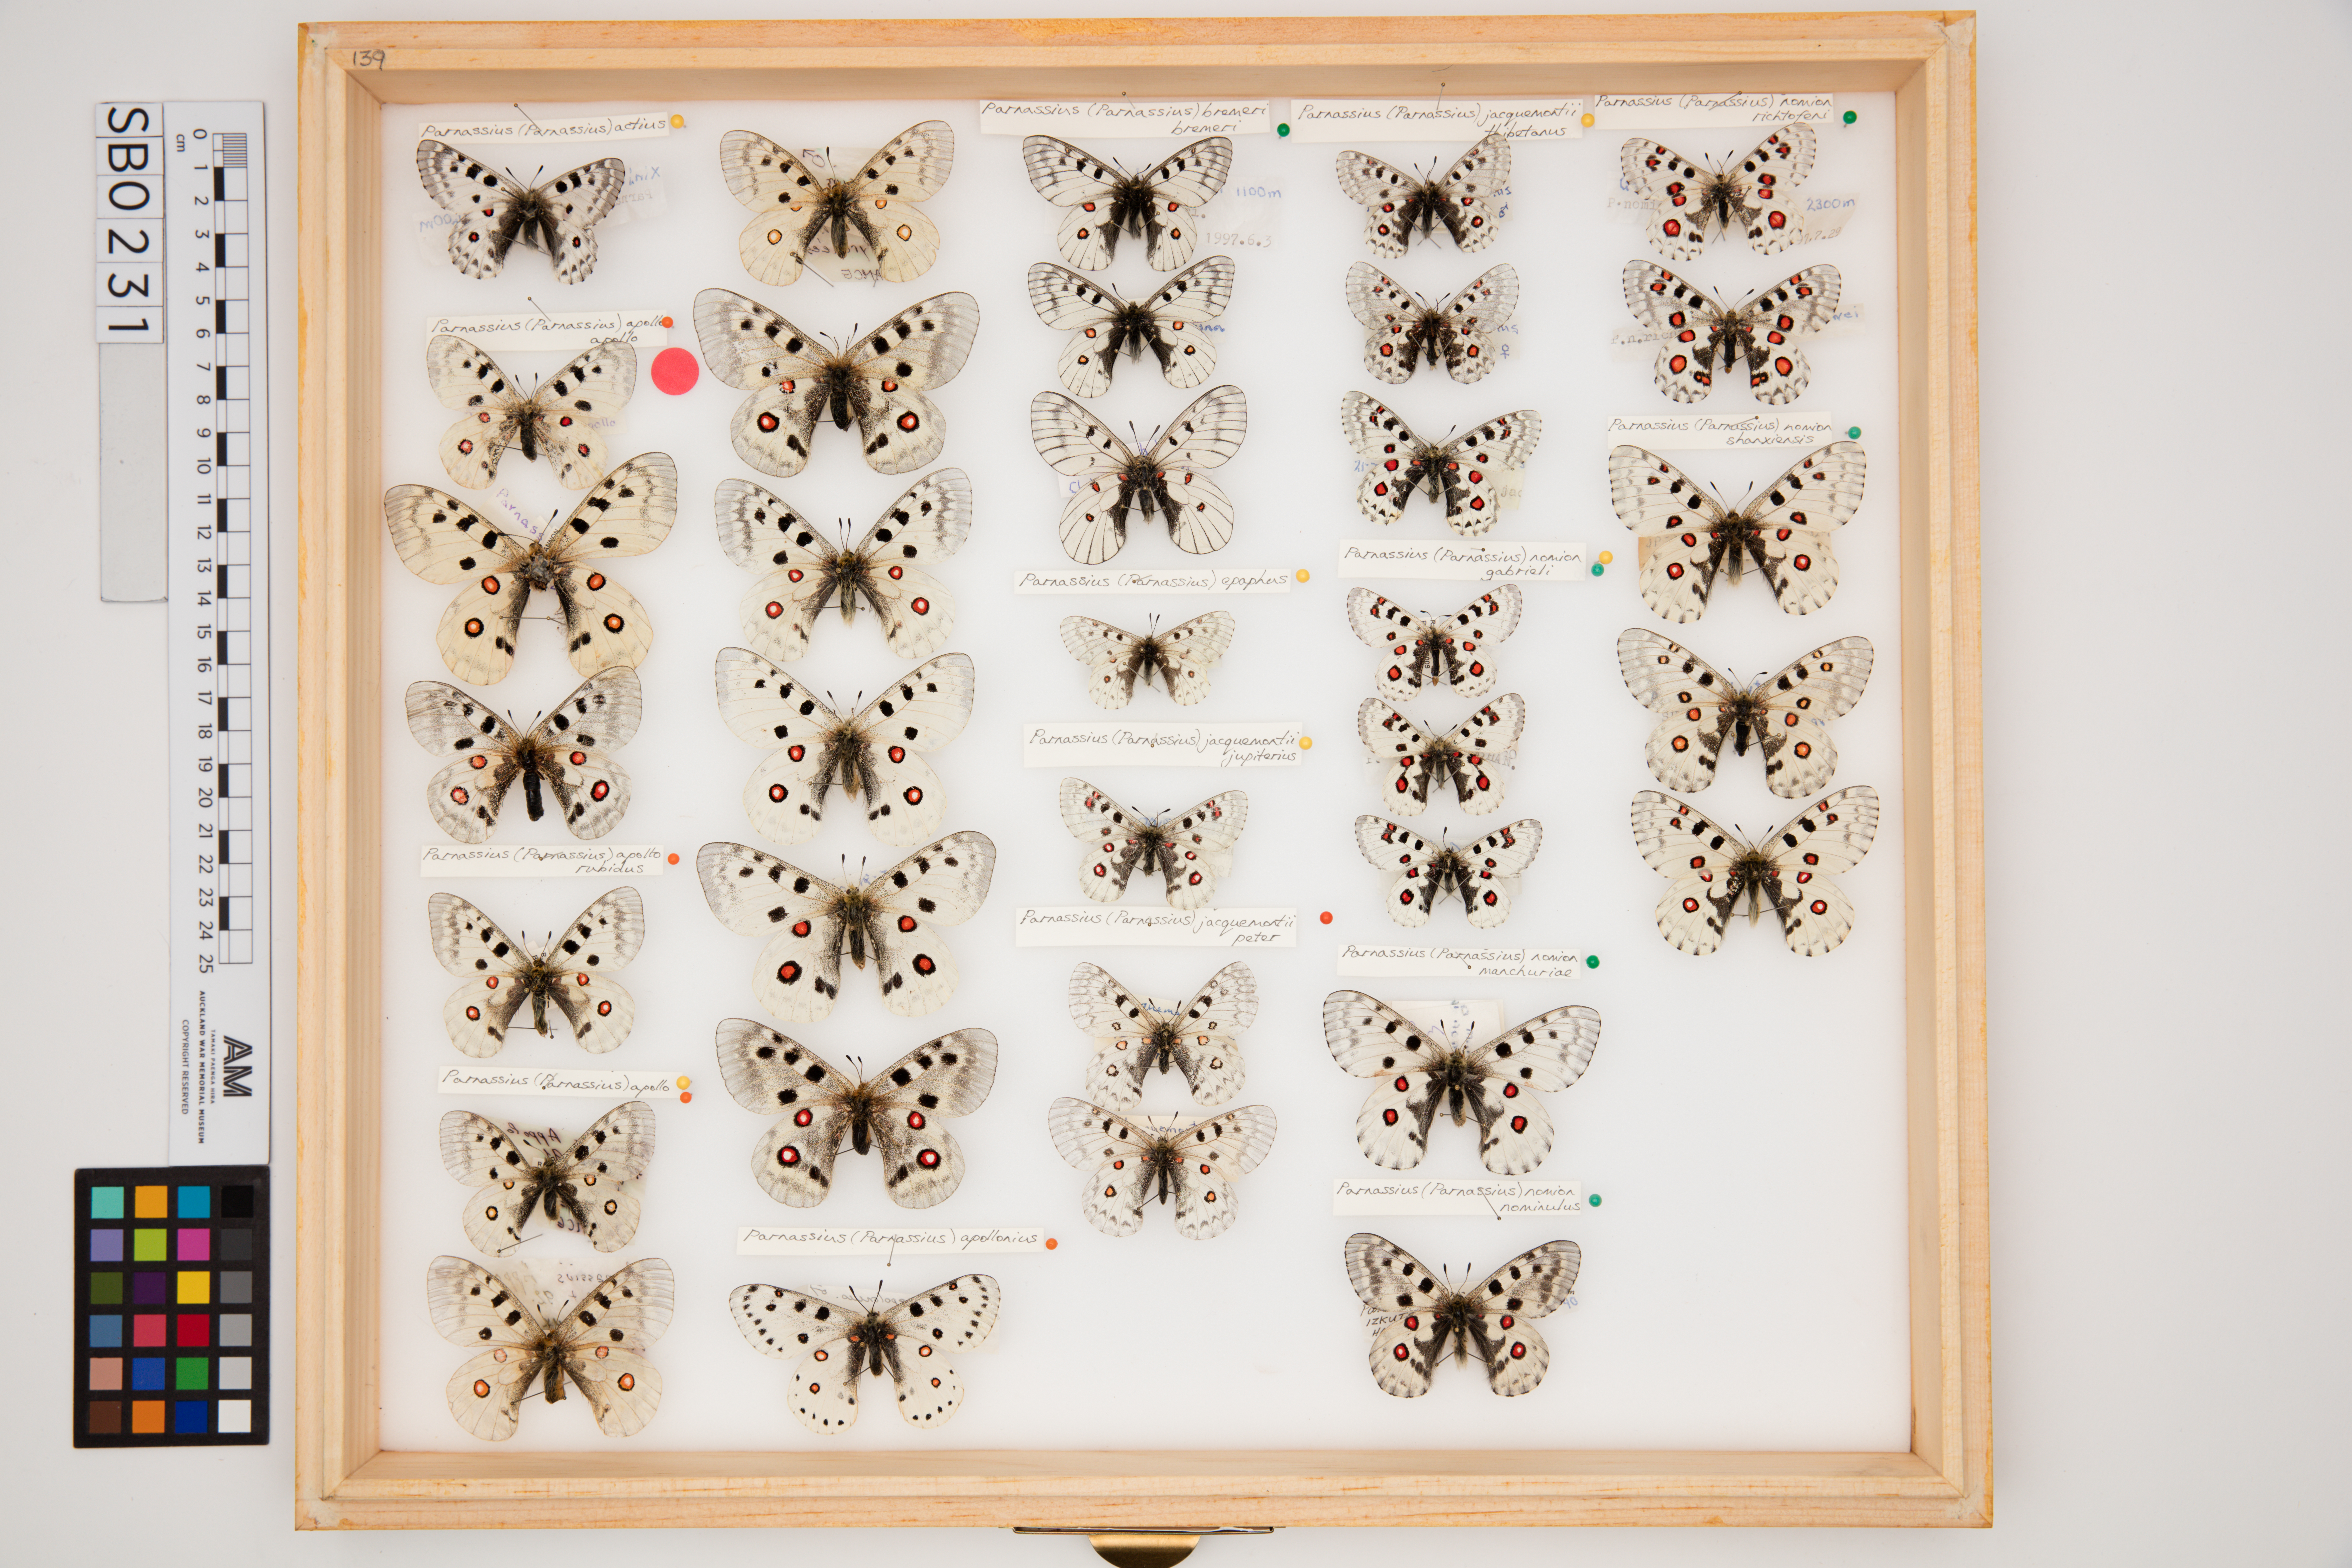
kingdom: Animalia
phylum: Arthropoda
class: Insecta
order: Lepidoptera
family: Papilionidae
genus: Parnassius
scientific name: Parnassius nomion
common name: Nomion apollo
